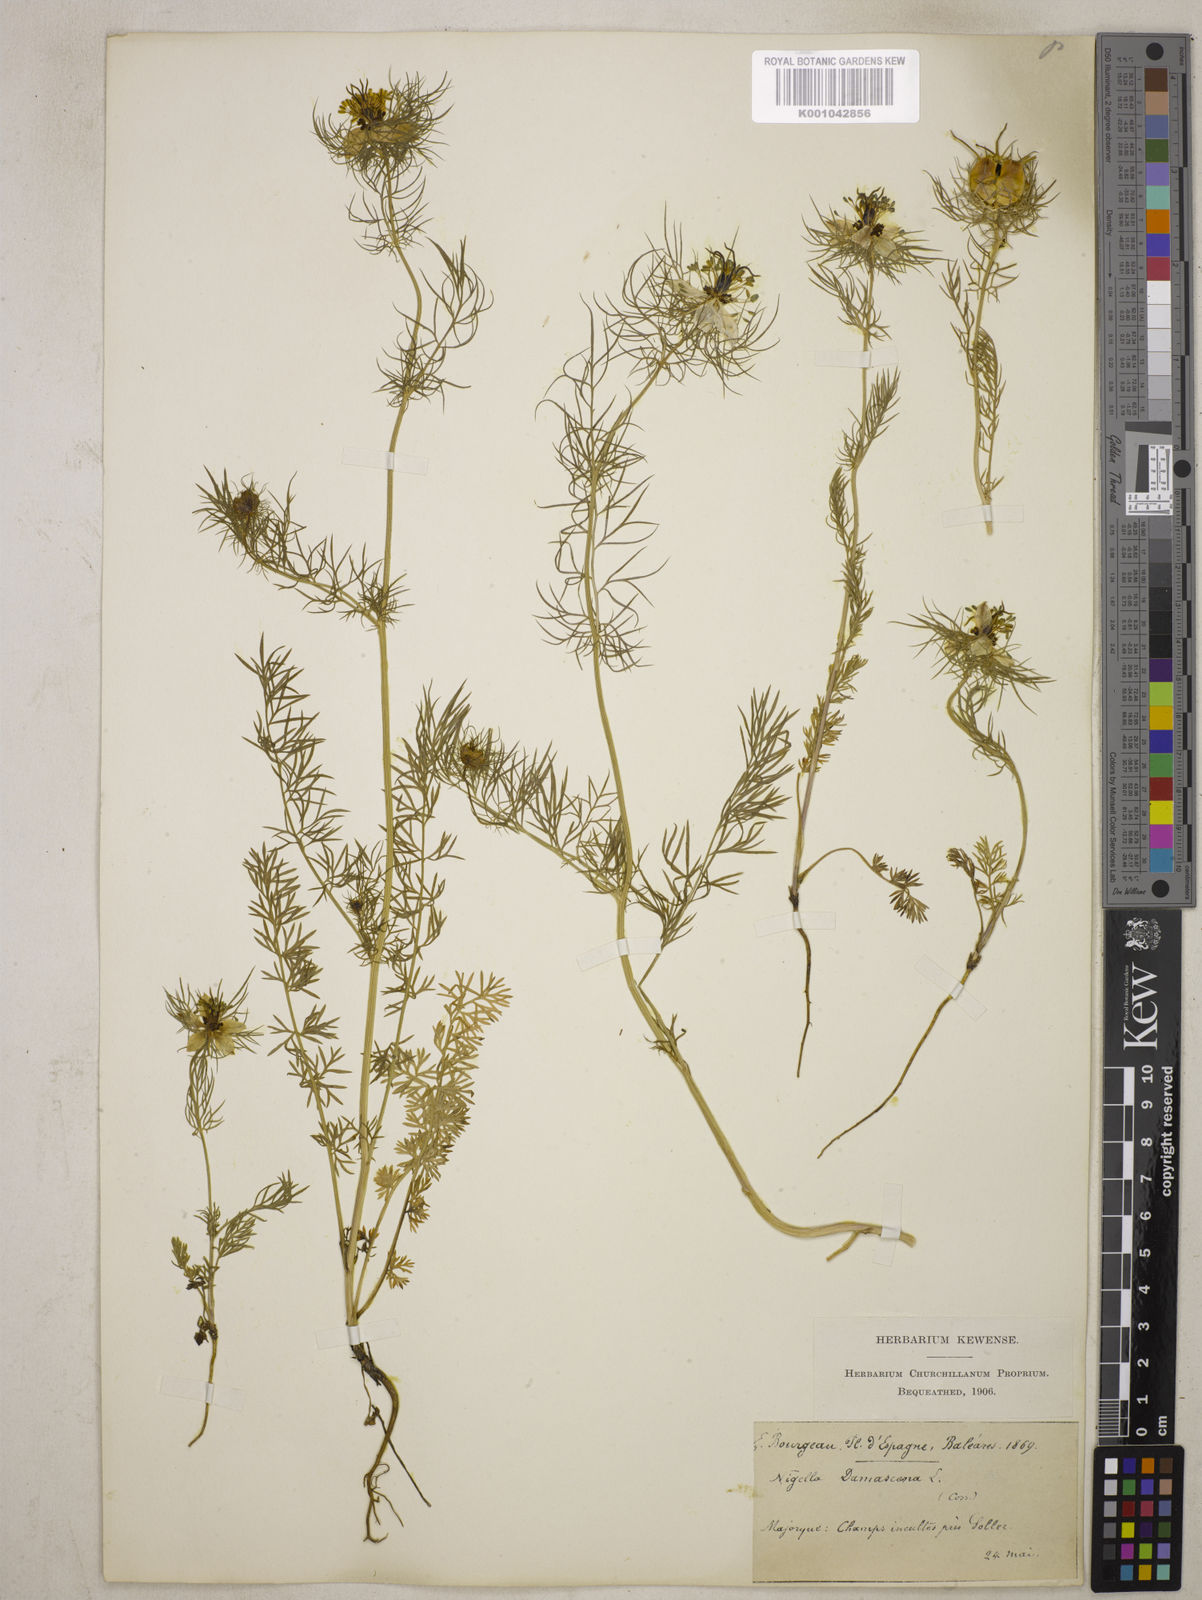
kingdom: Plantae
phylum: Tracheophyta
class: Magnoliopsida
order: Ranunculales
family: Ranunculaceae
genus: Nigella
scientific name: Nigella damascena
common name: Love-in-a-mist
